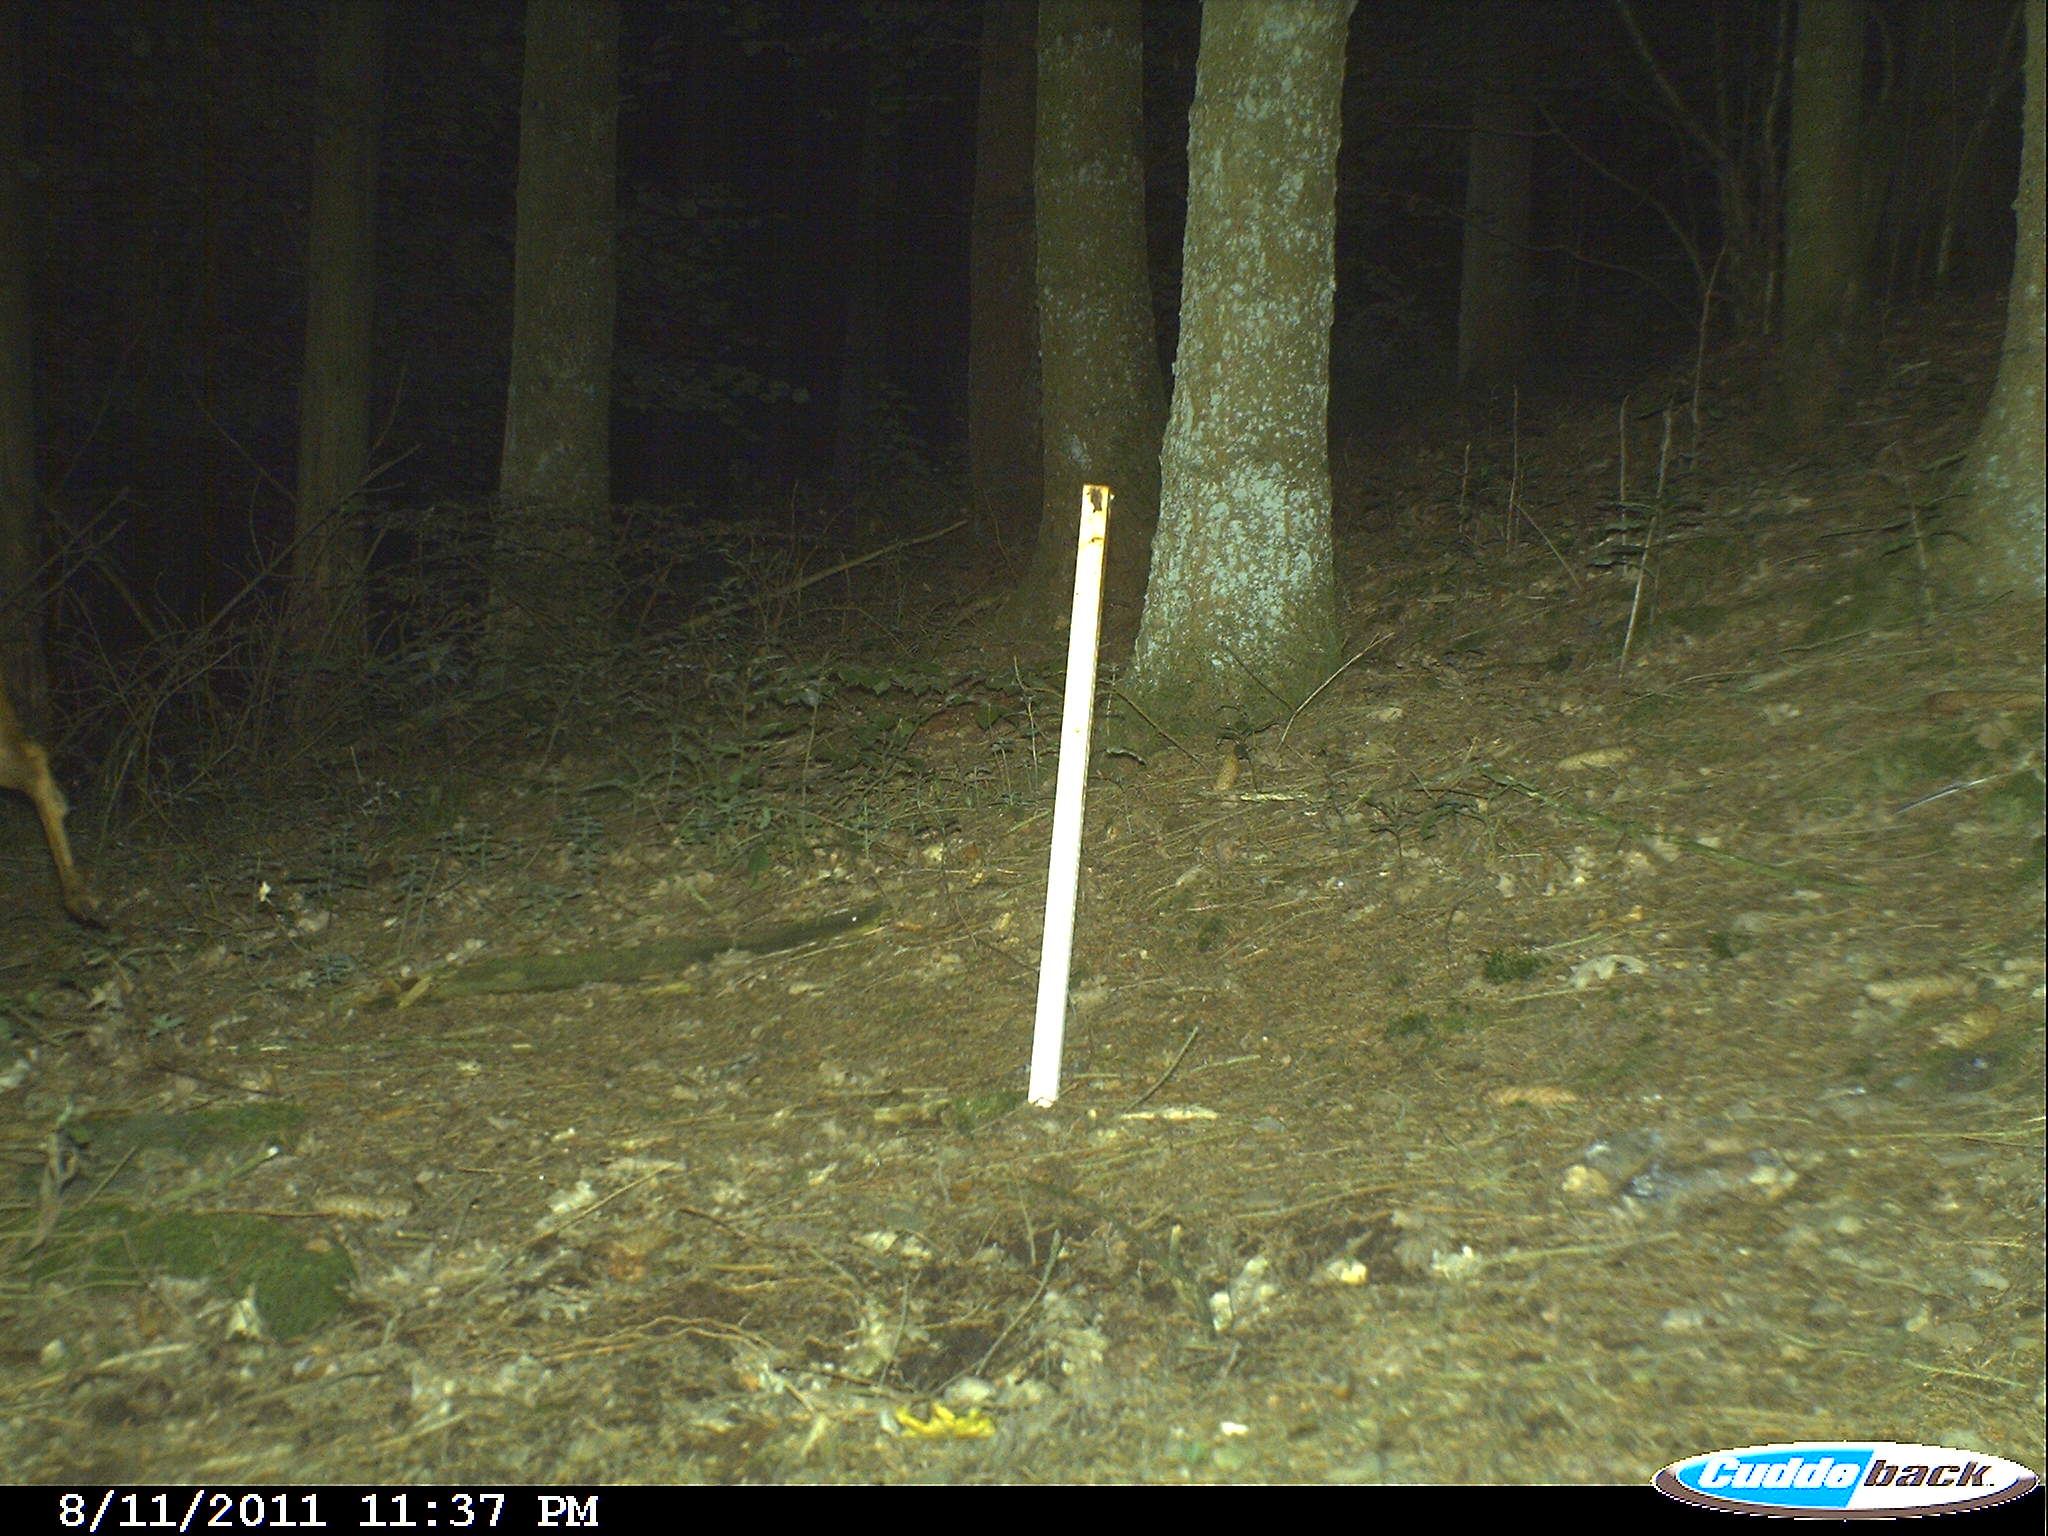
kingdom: Animalia
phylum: Chordata
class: Mammalia
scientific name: Mammalia
